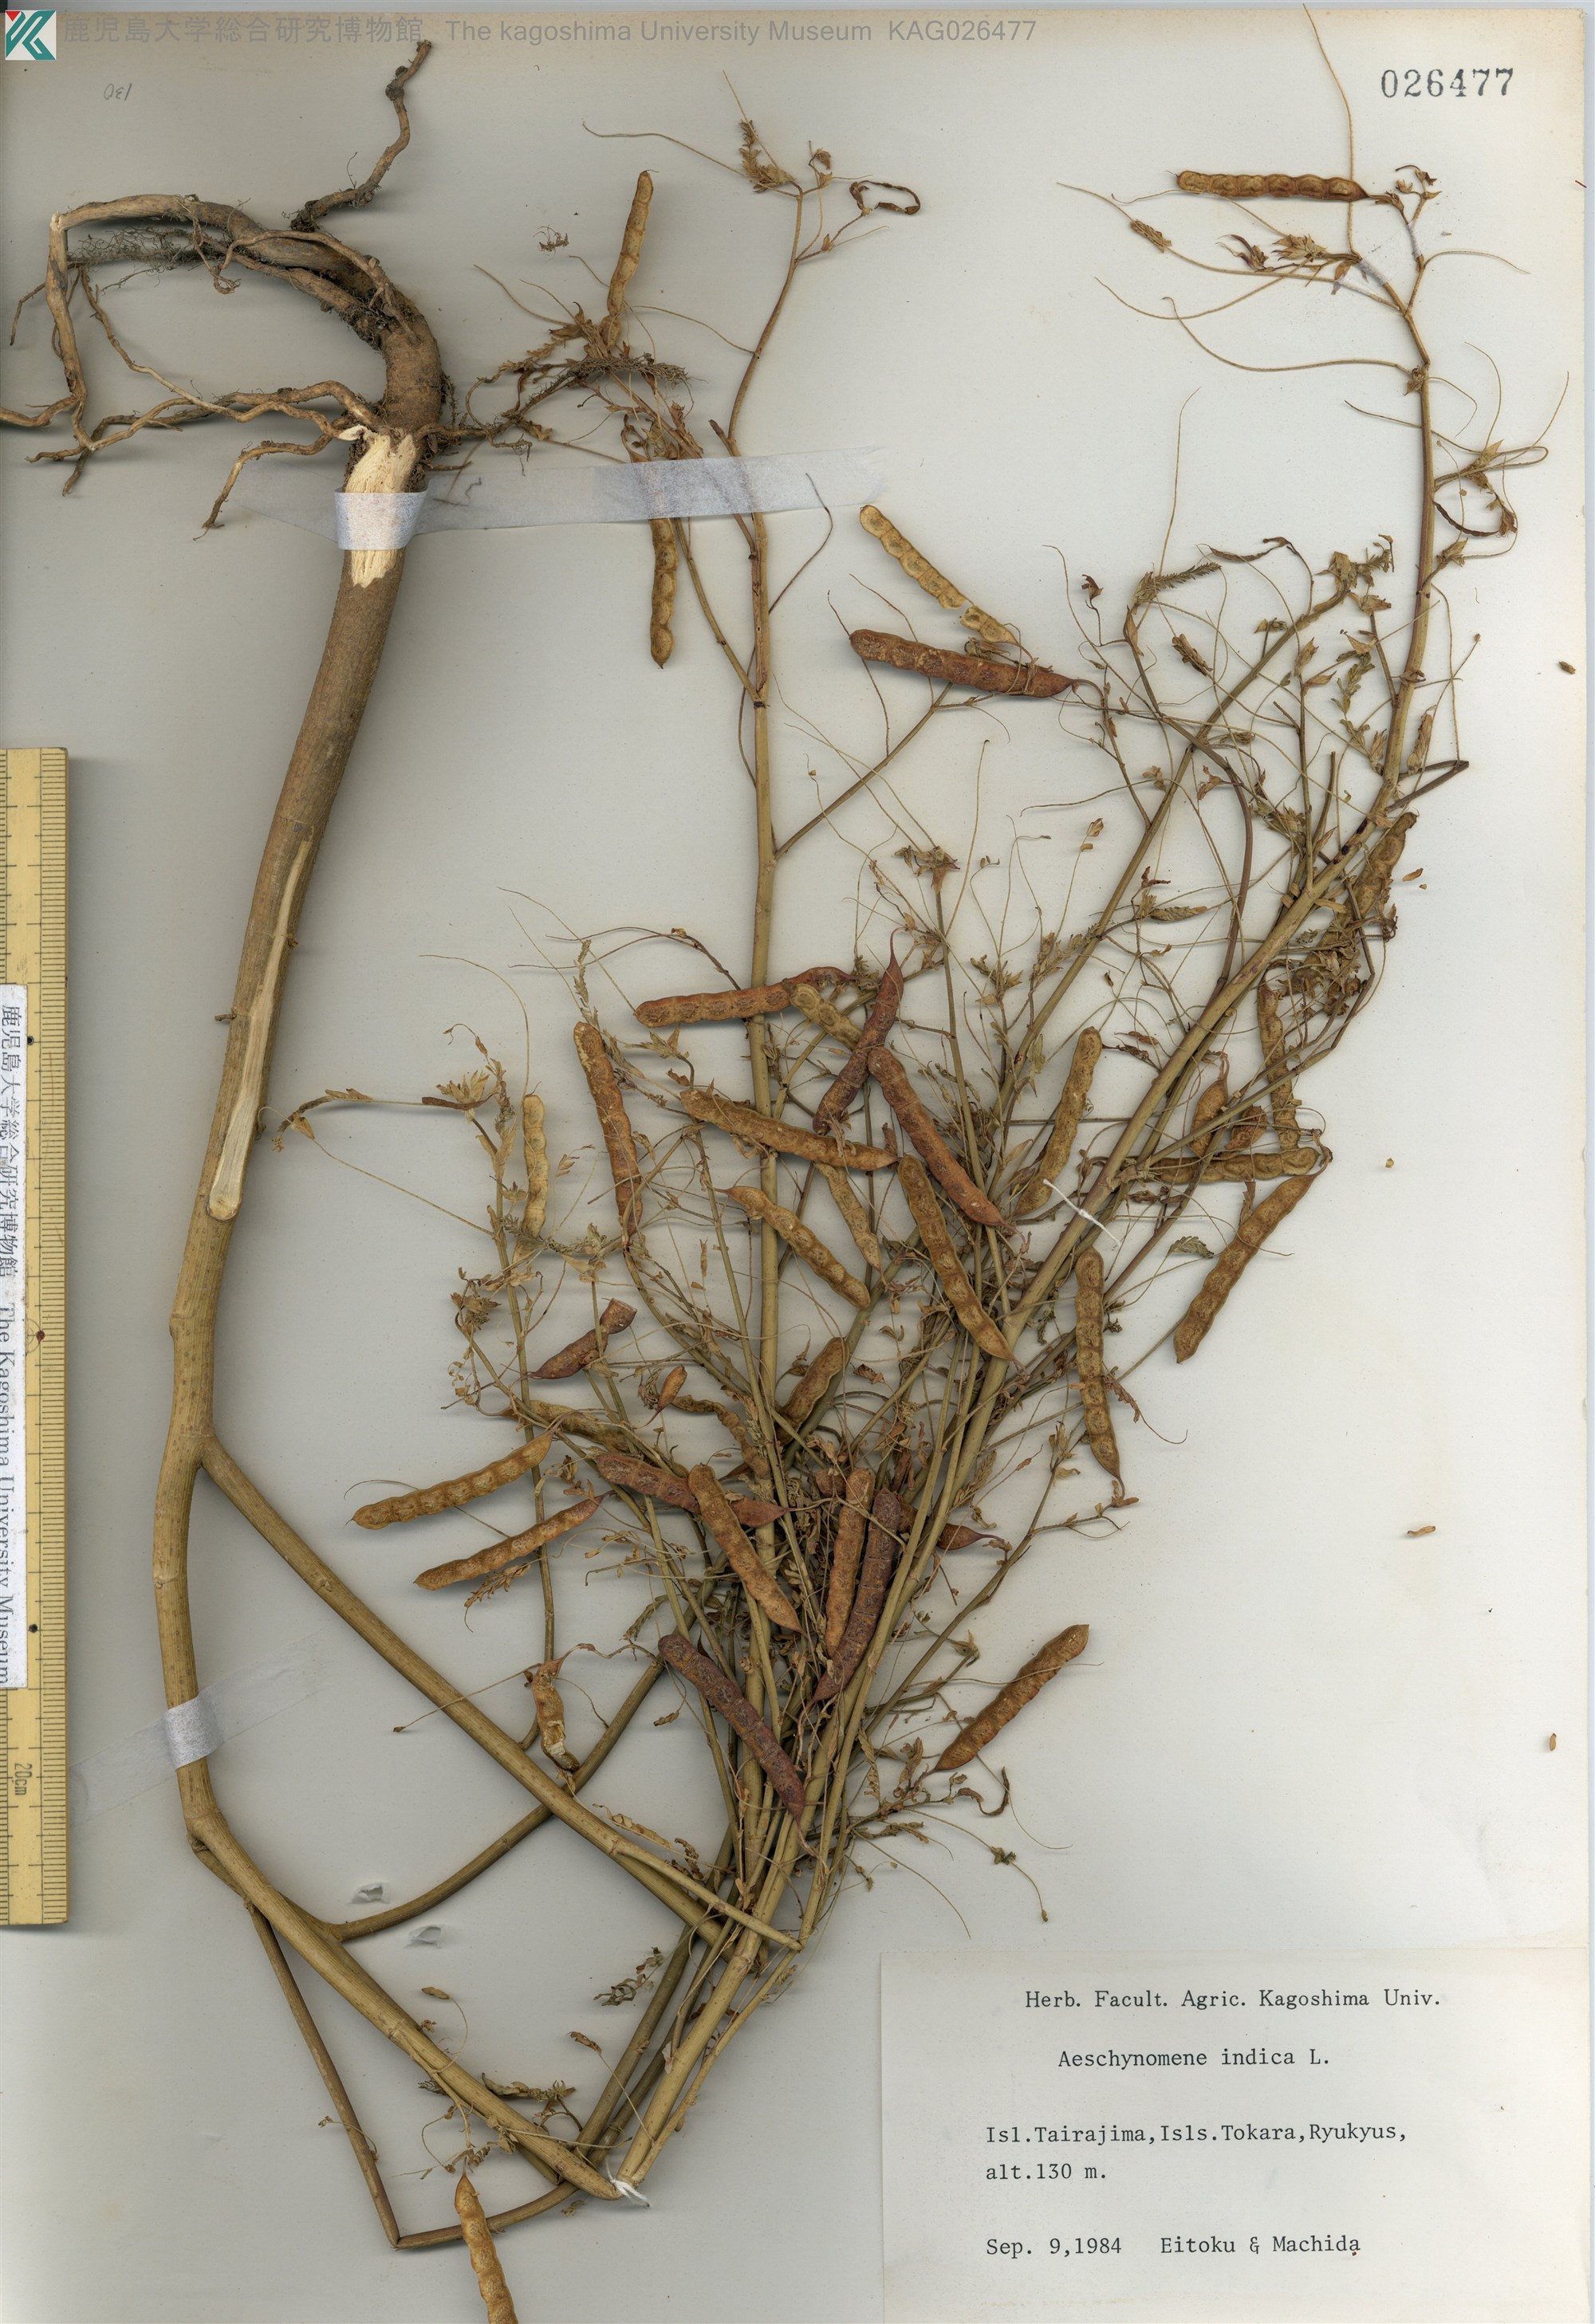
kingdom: Plantae
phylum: Tracheophyta
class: Magnoliopsida
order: Fabales
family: Fabaceae
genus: Aeschynomene
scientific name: Aeschynomene indica
